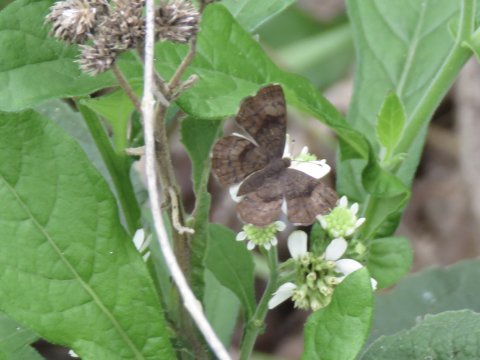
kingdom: Animalia
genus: Calephelis
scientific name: Calephelis nemesis
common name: Fatal Metalmark
